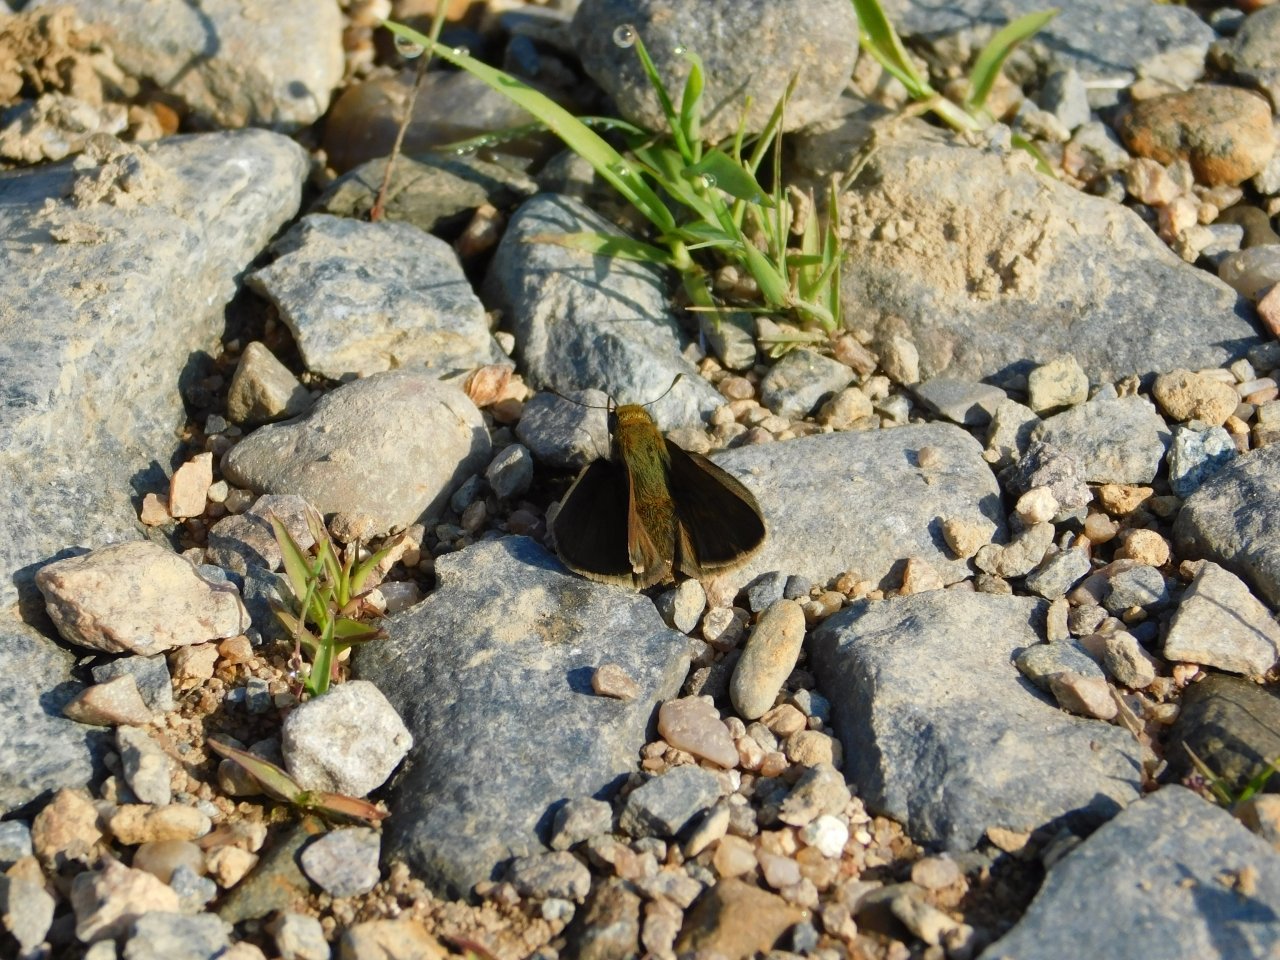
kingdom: Animalia
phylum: Arthropoda
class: Insecta
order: Lepidoptera
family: Hesperiidae
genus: Euphyes
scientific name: Euphyes vestris
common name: Dun Skipper
